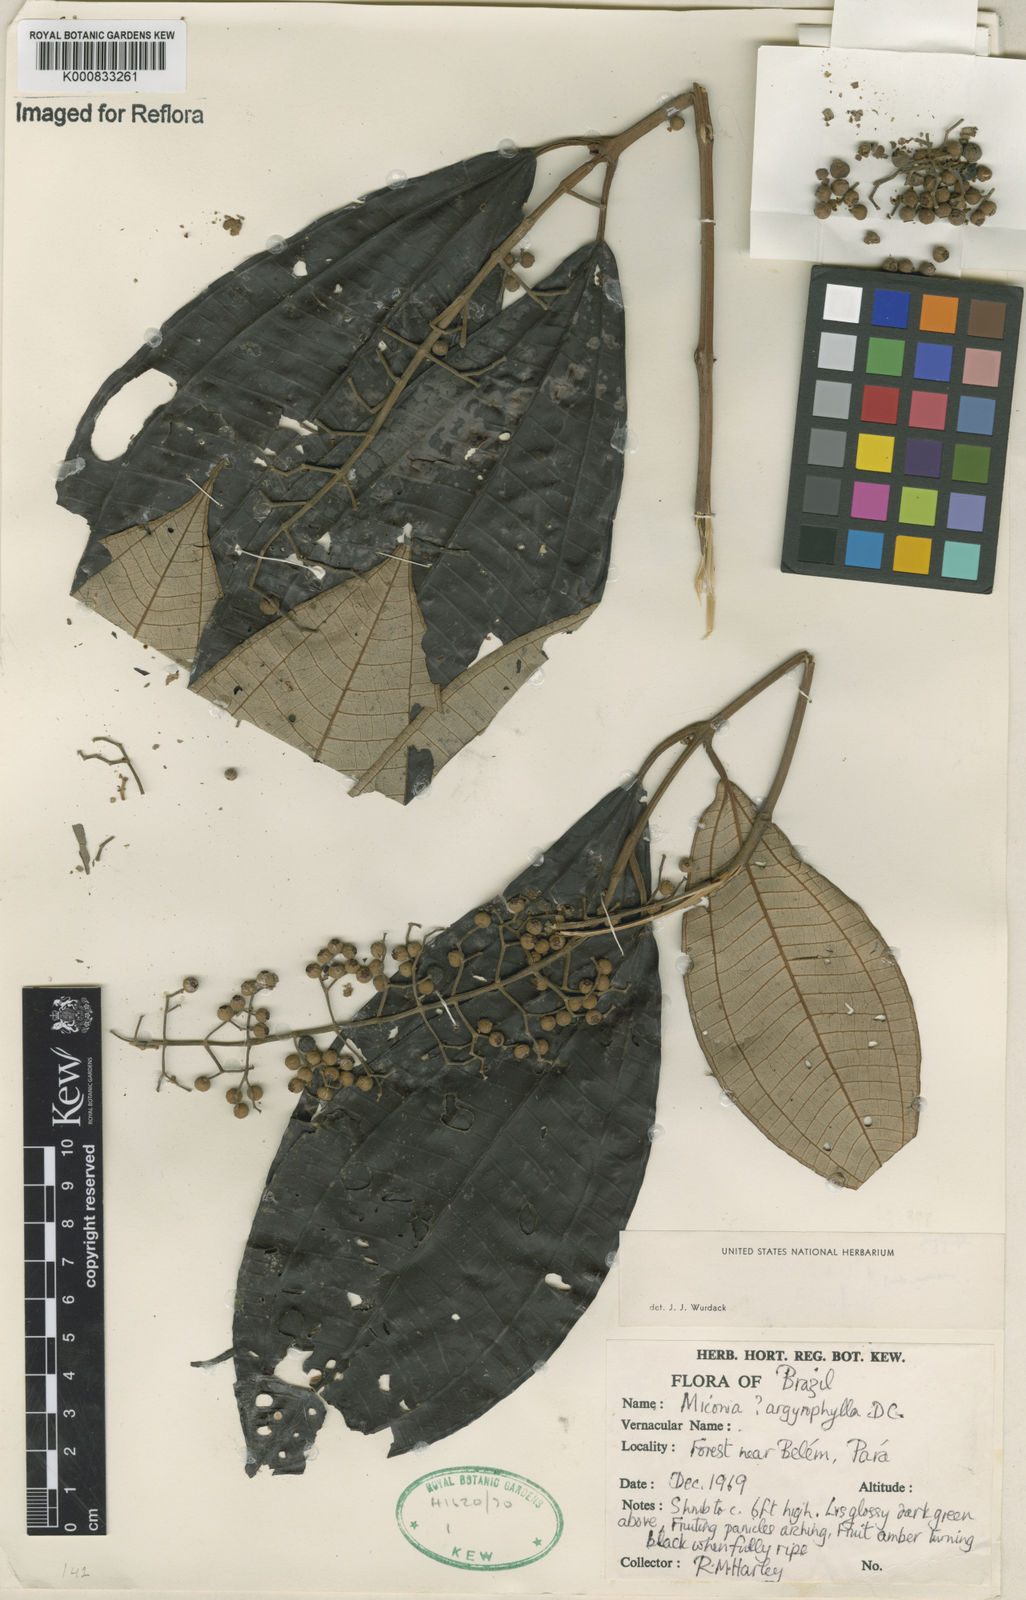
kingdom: Plantae
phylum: Tracheophyta
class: Magnoliopsida
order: Myrtales
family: Melastomataceae
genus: Miconia
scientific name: Miconia argyrophylla
